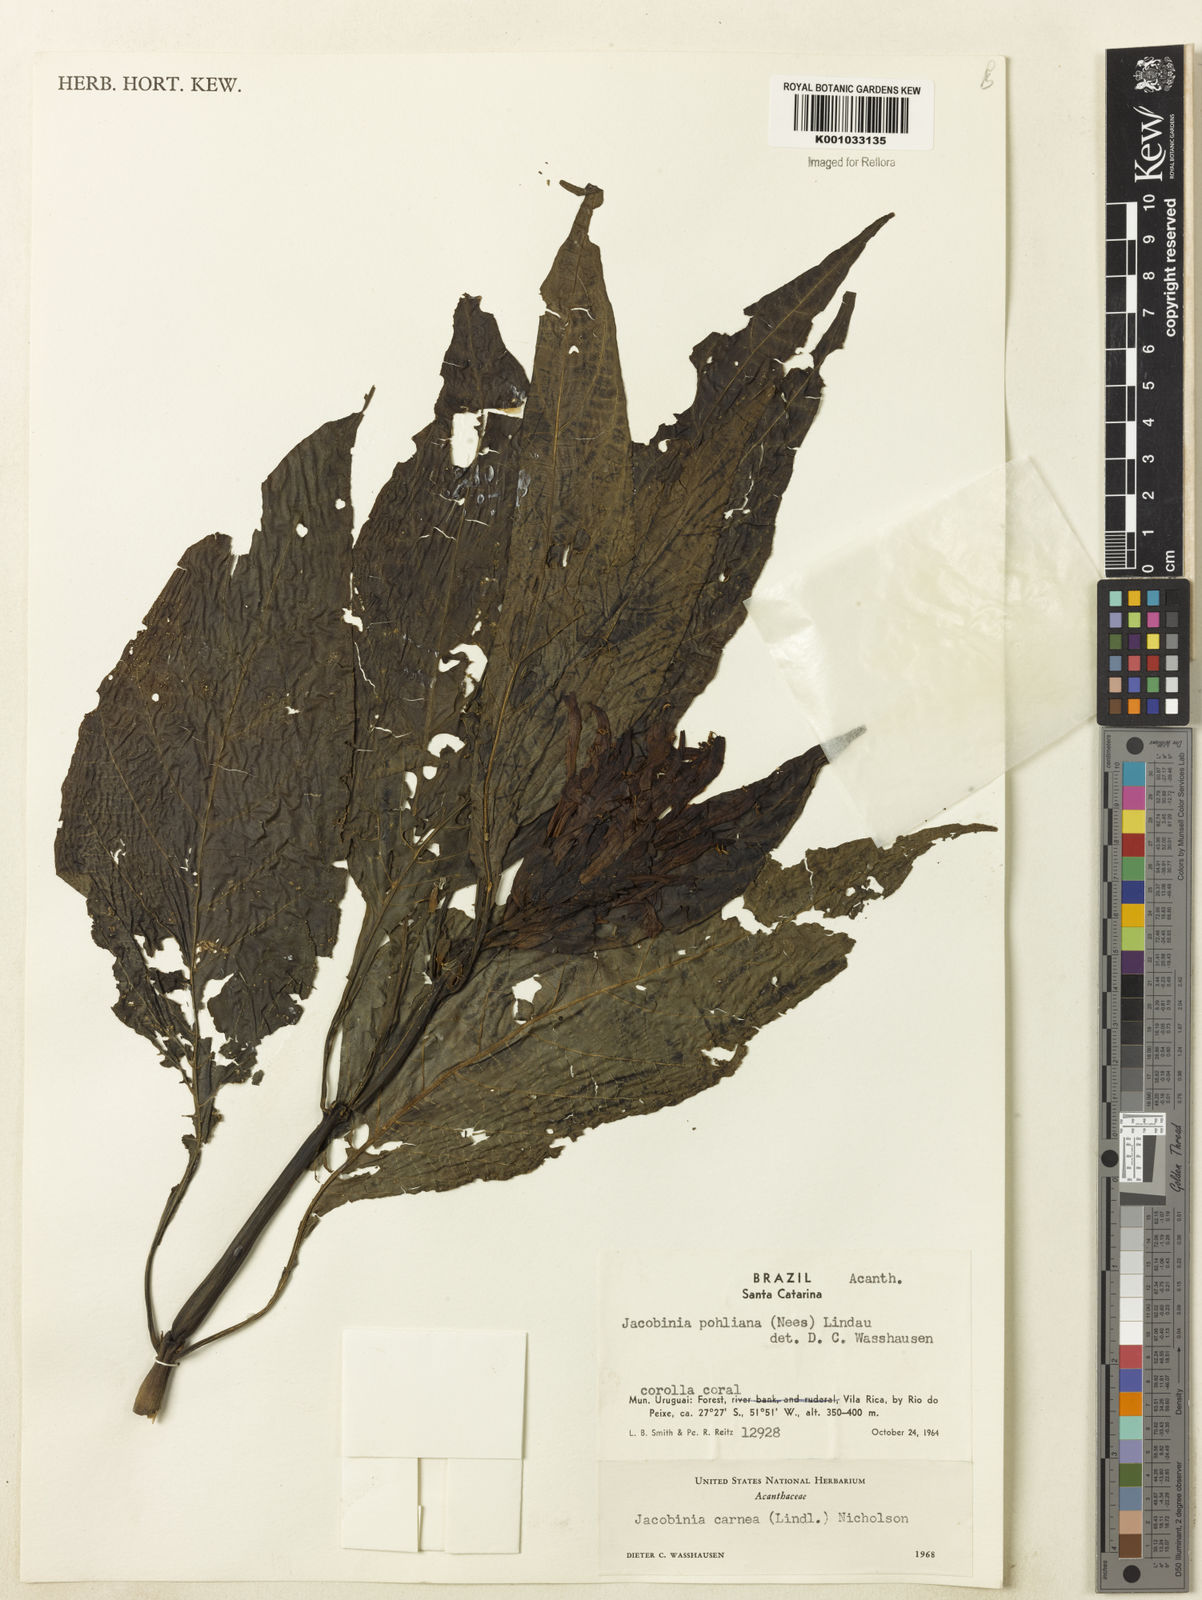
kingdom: Plantae
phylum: Tracheophyta
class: Magnoliopsida
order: Lamiales
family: Acanthaceae
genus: Justicia
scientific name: Justicia carnea
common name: Brazilian-plume
